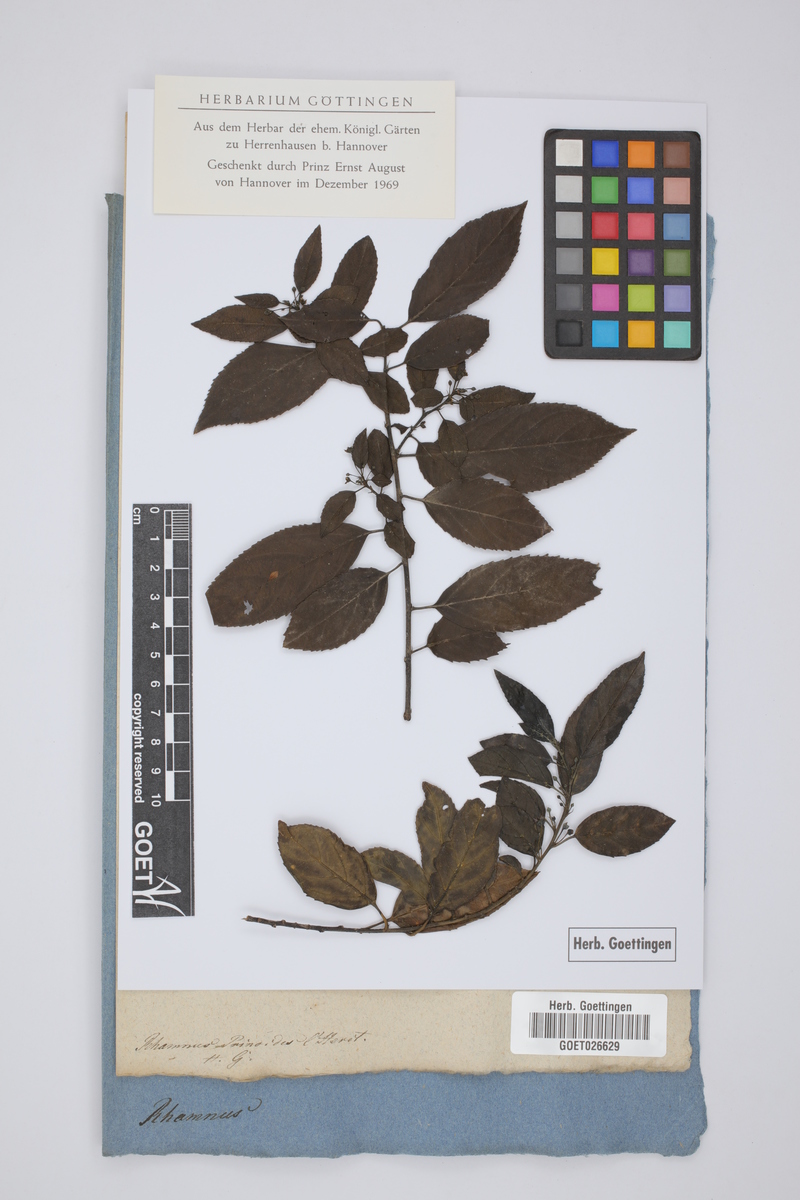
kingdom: Plantae
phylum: Tracheophyta
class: Magnoliopsida
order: Rosales
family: Rhamnaceae
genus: Rhamnus
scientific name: Rhamnus prinoides
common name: Dogwood
